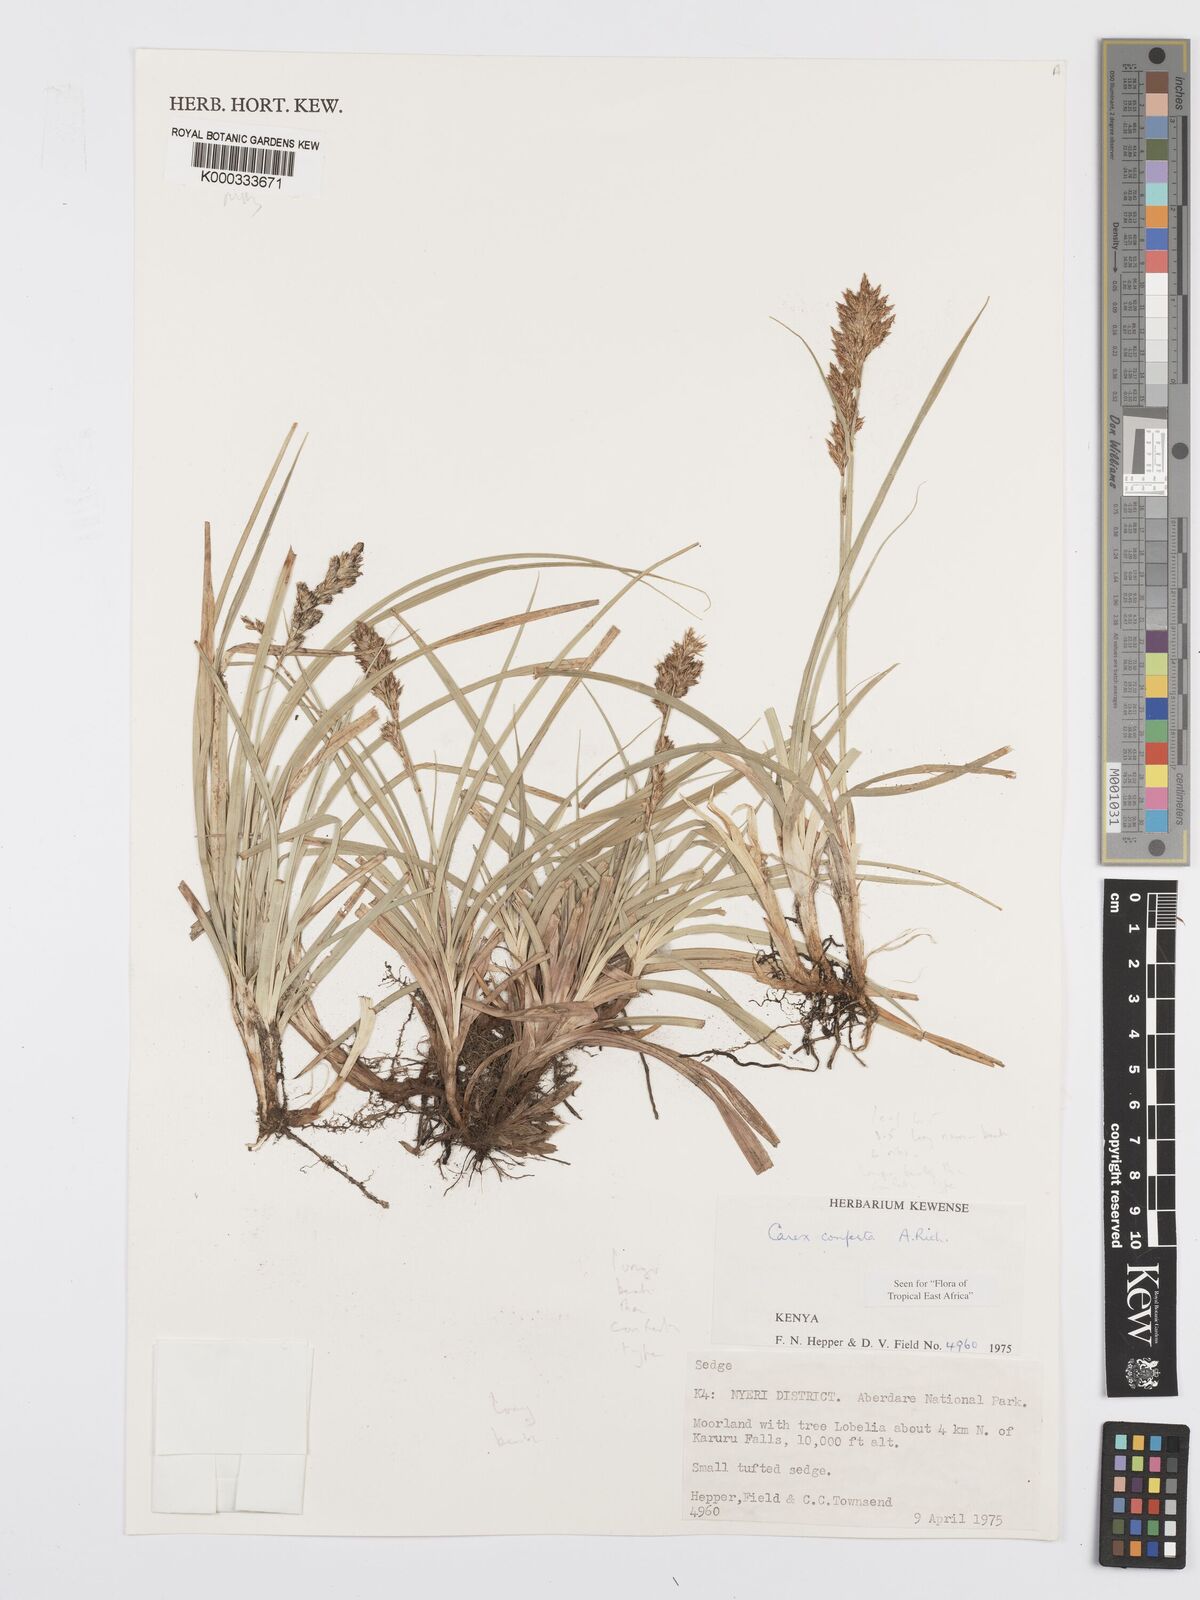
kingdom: Plantae
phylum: Tracheophyta
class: Liliopsida
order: Poales
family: Cyperaceae
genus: Carex
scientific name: Carex conferta
